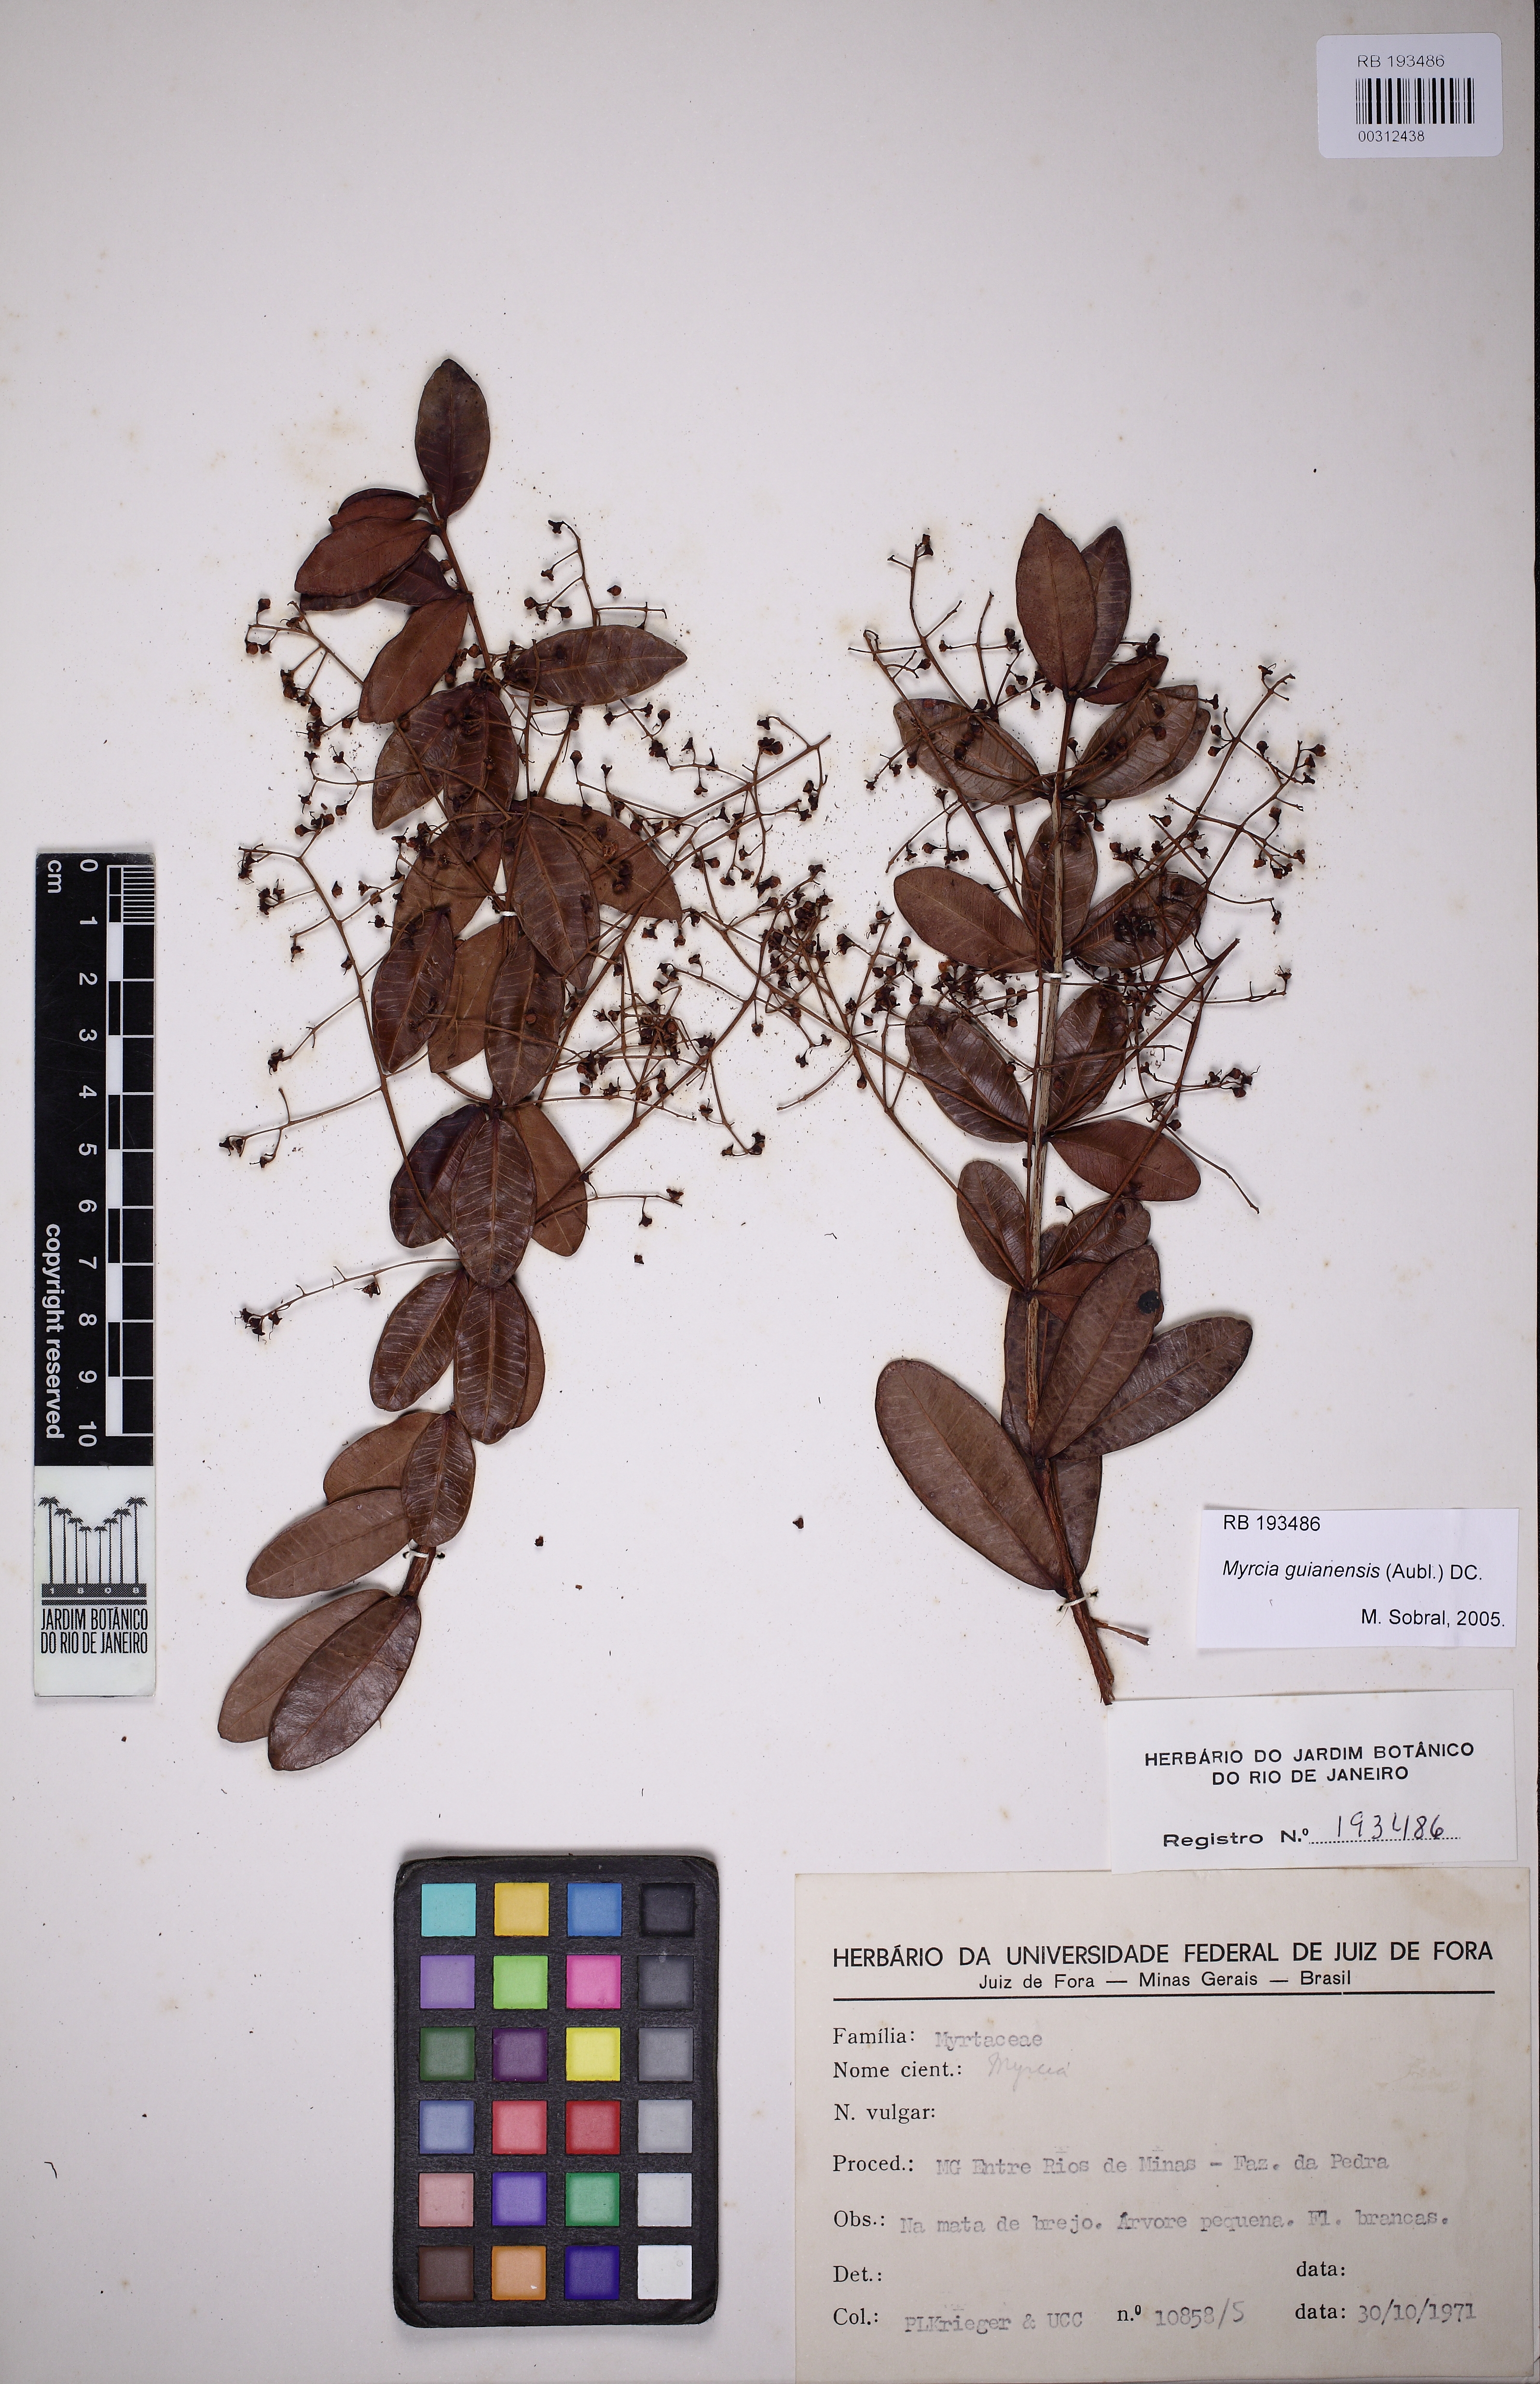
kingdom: Plantae
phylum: Tracheophyta
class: Magnoliopsida
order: Myrtales
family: Myrtaceae
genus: Myrcia
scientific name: Myrcia guianensis
